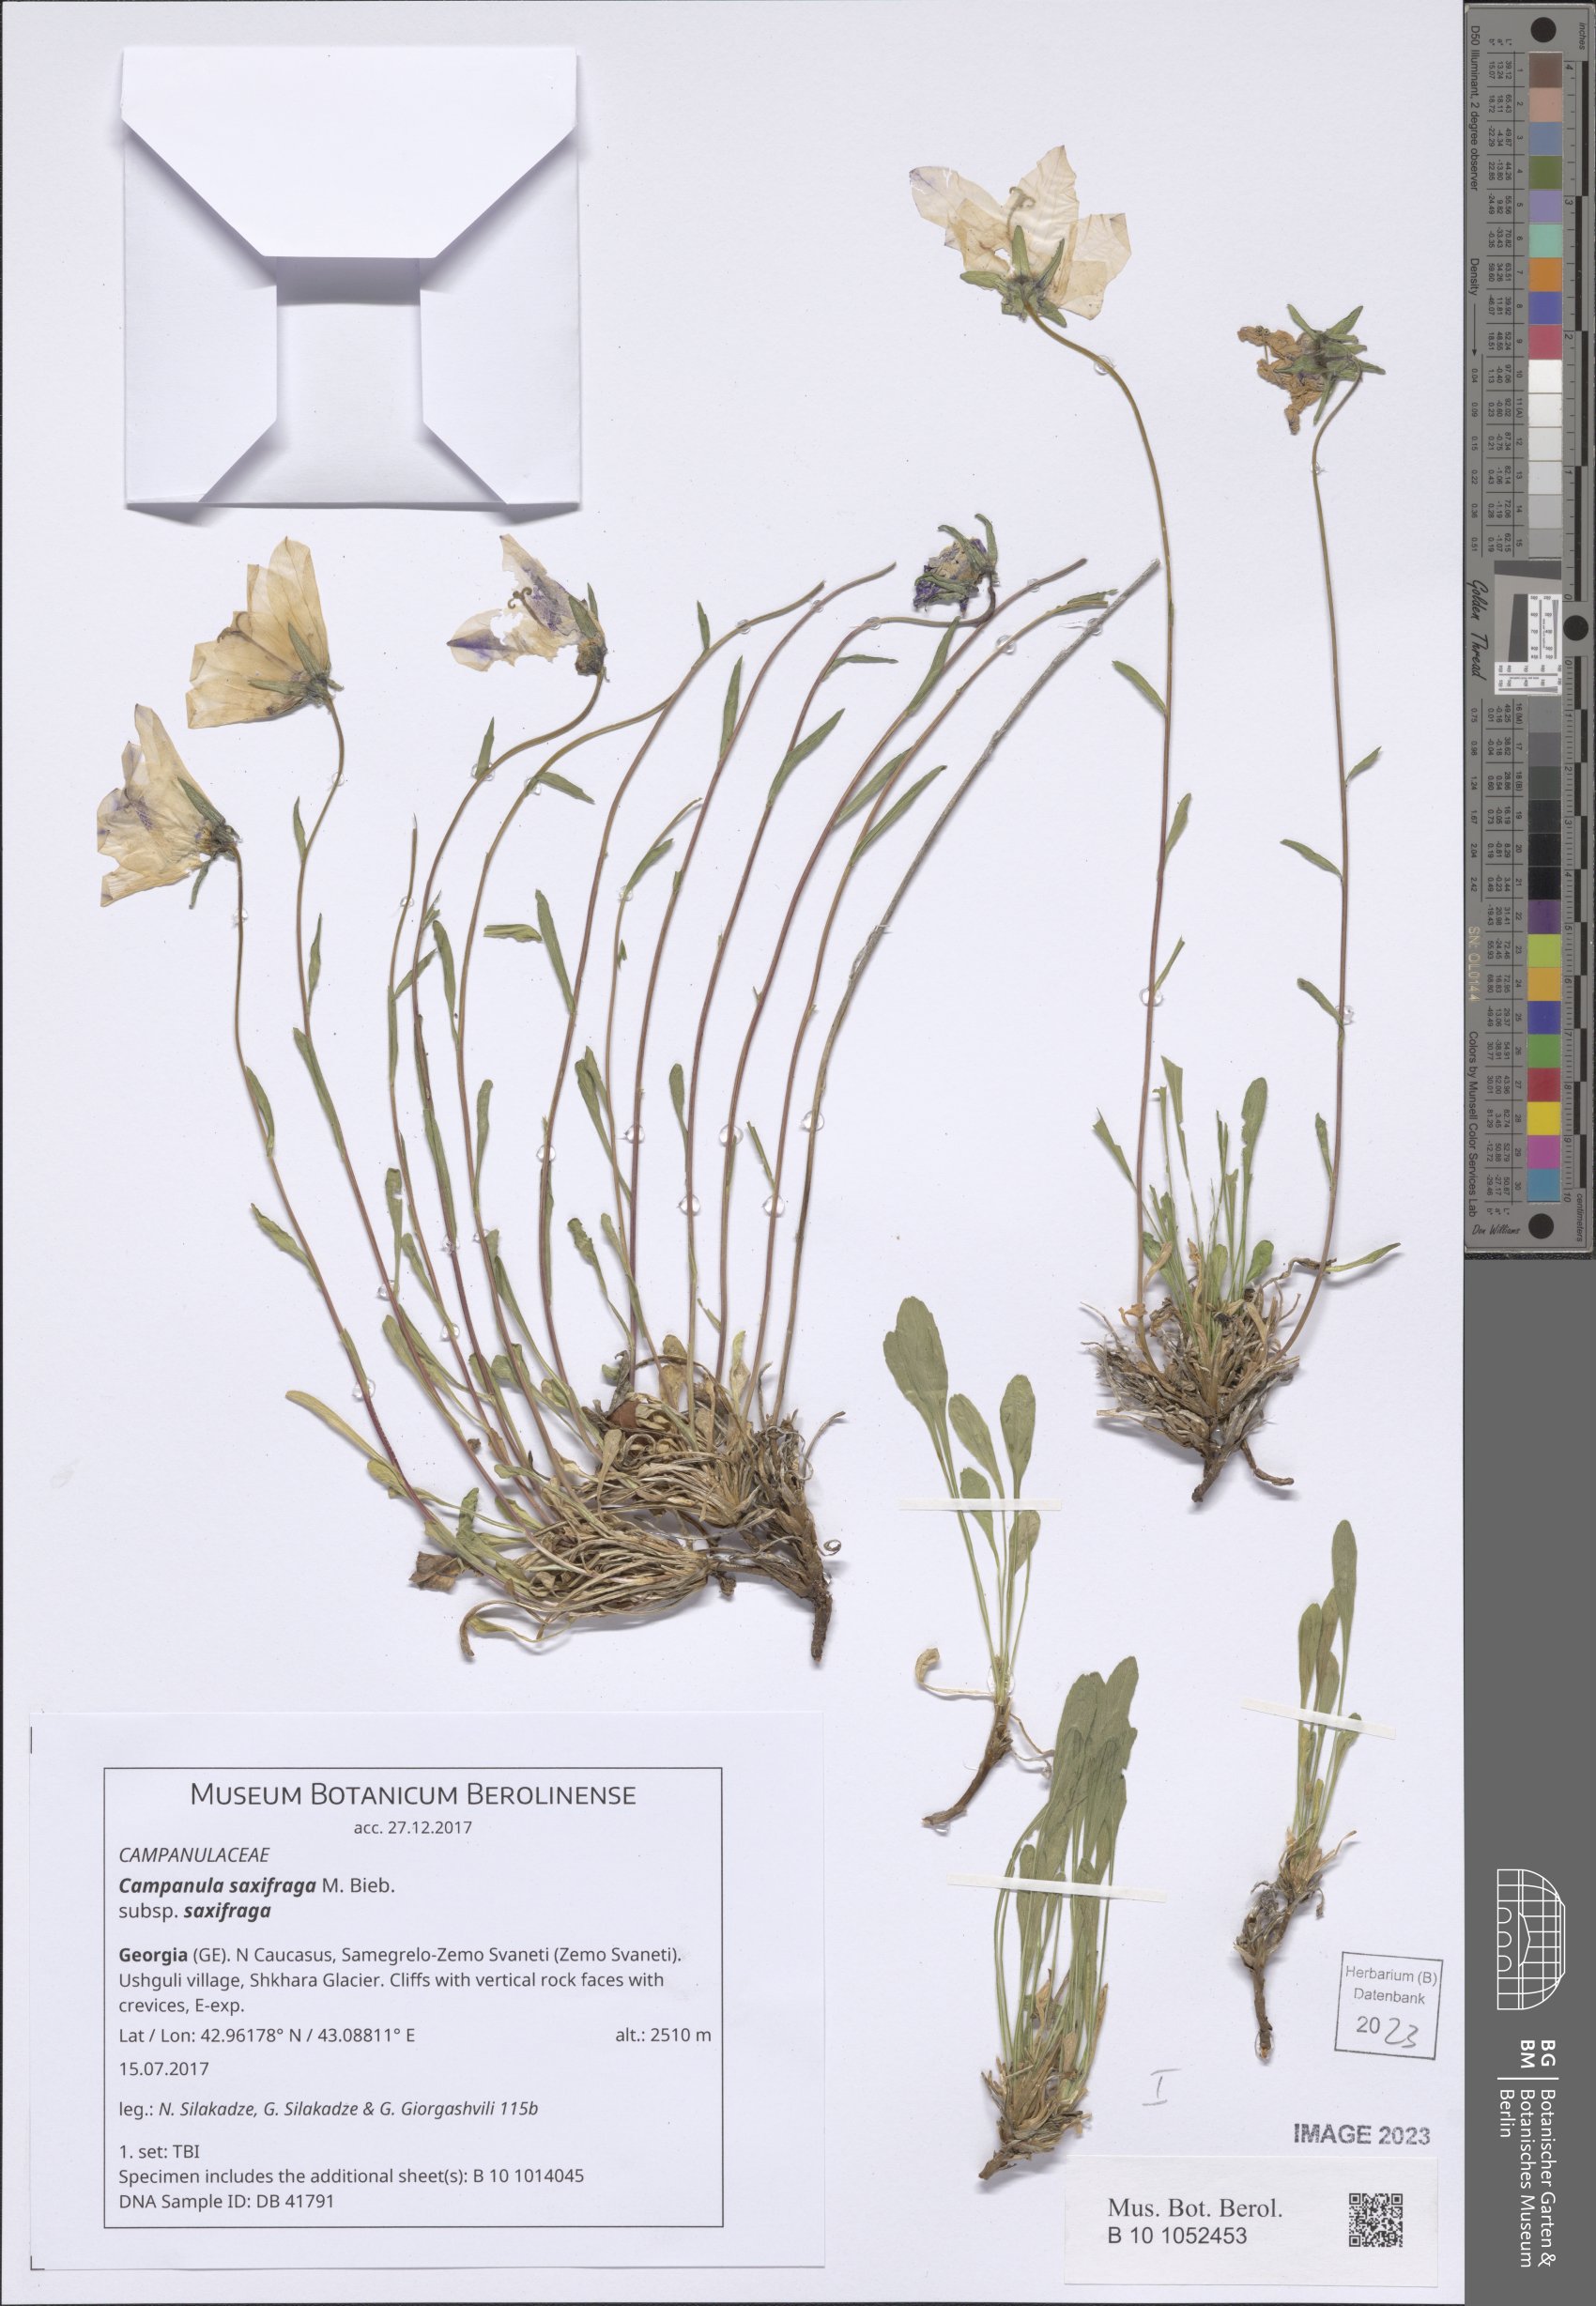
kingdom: Plantae
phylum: Tracheophyta
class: Magnoliopsida
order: Asterales
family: Campanulaceae
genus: Campanula
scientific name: Campanula saxifraga
